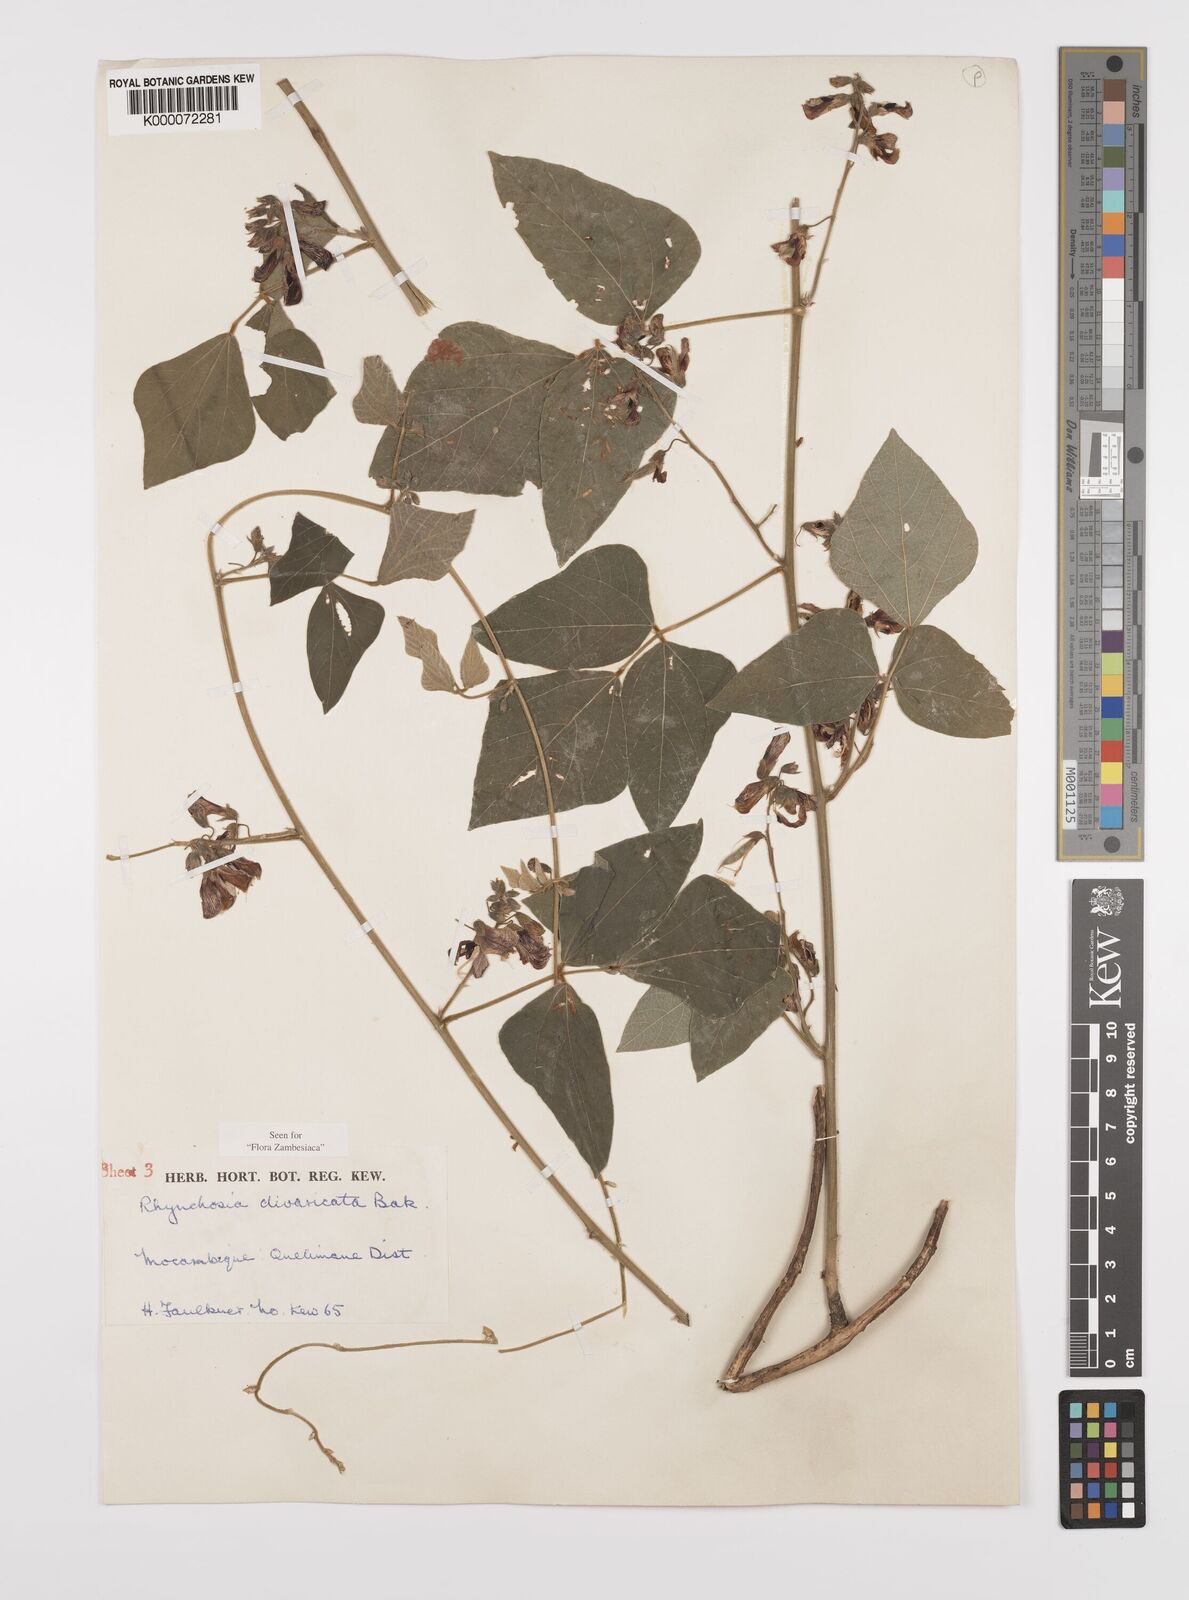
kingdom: Plantae
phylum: Tracheophyta
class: Magnoliopsida
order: Fabales
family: Fabaceae
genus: Rhynchosia
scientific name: Rhynchosia divaricata
